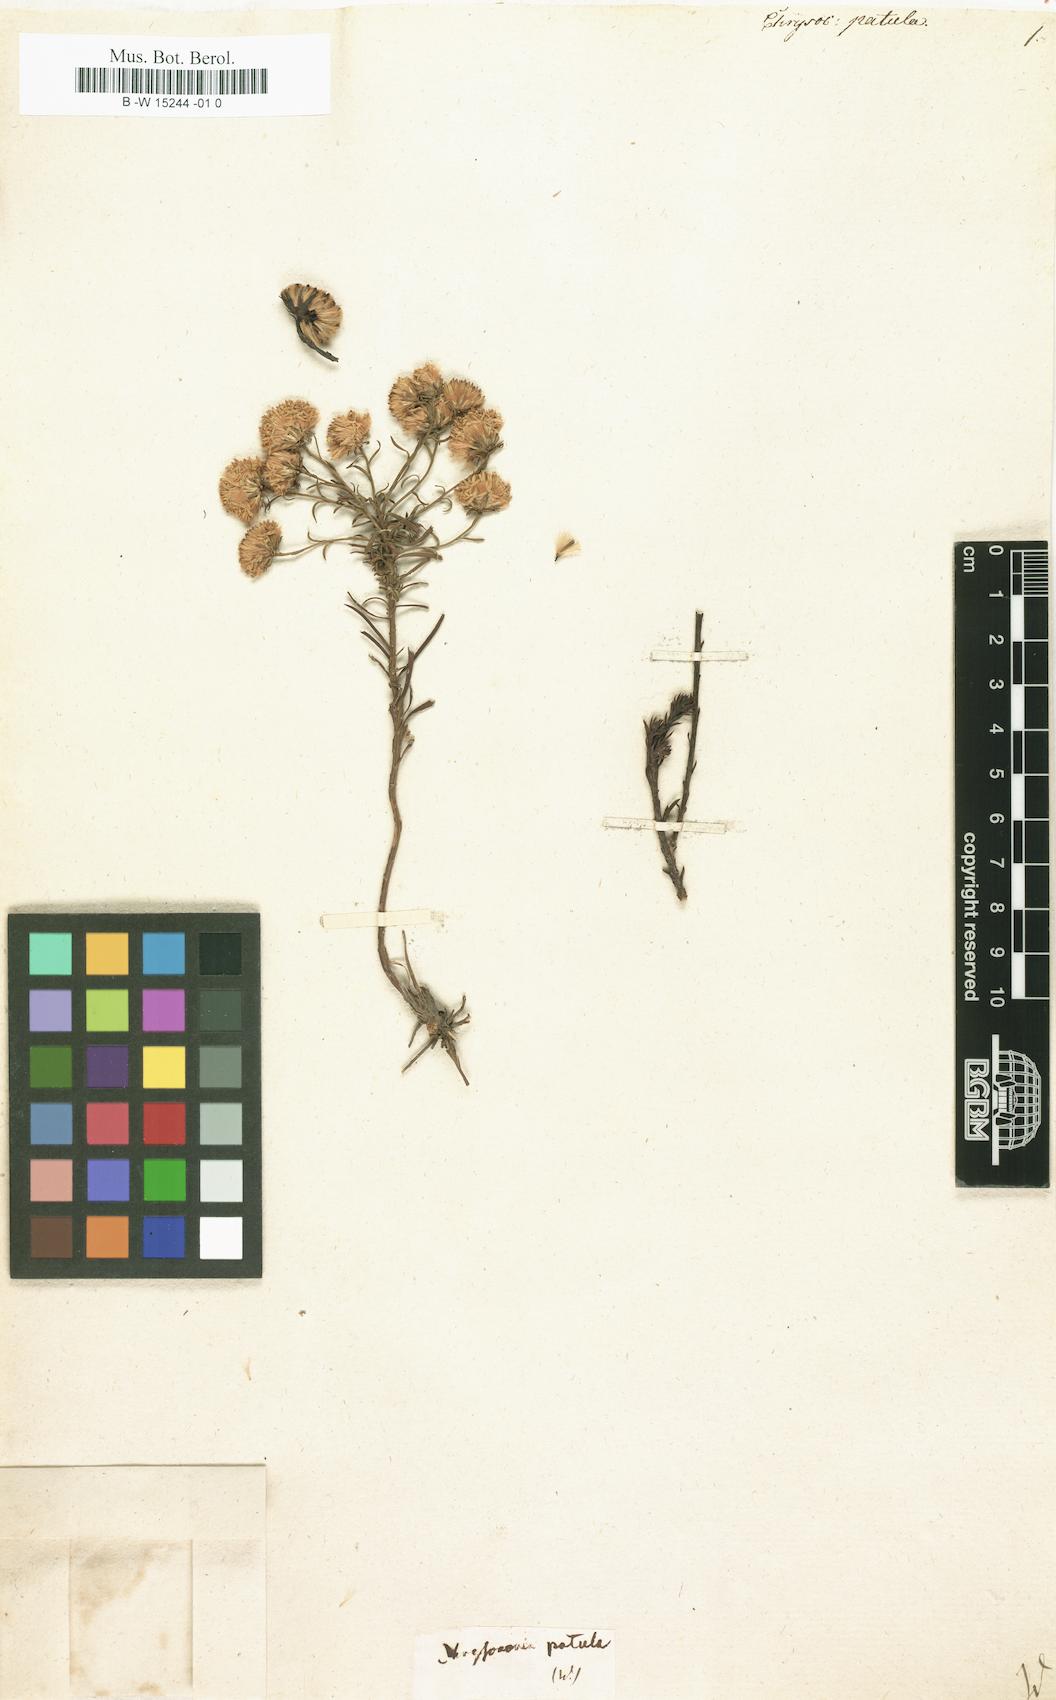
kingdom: Plantae
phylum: Tracheophyta
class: Magnoliopsida
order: Asterales
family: Asteraceae
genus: Chrysocoma
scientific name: Chrysocoma ciliata
